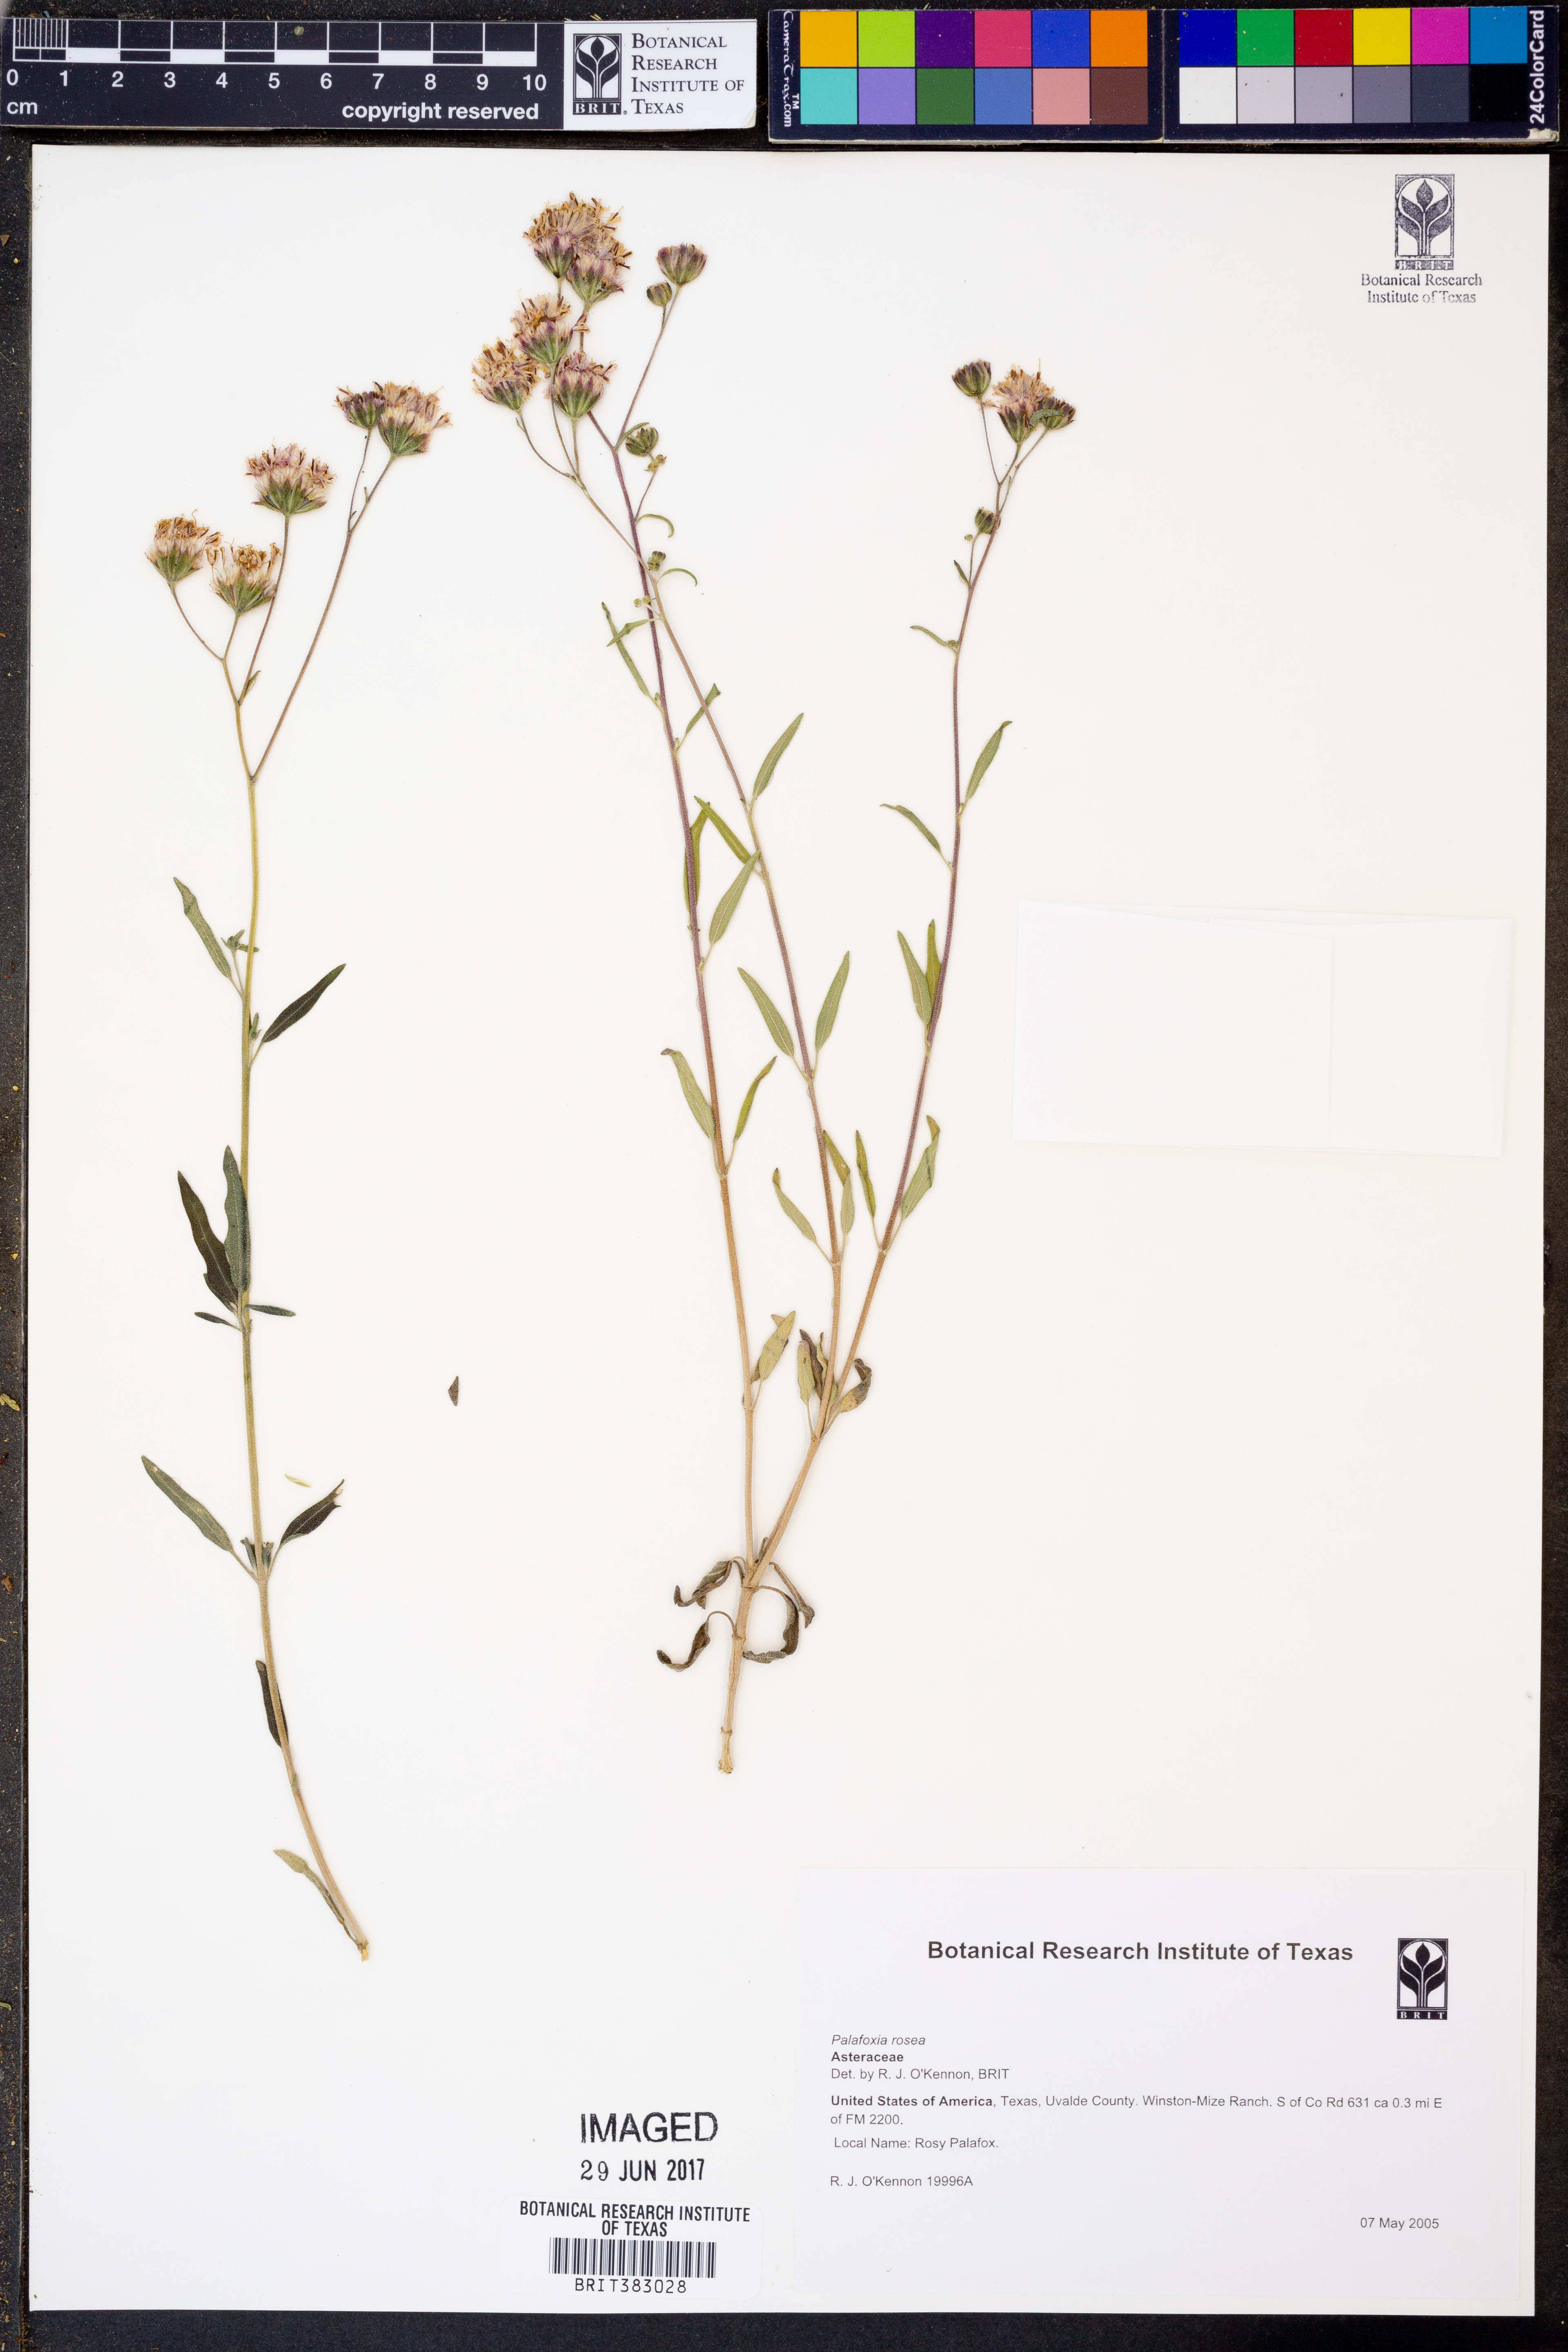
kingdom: Plantae
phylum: Tracheophyta
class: Magnoliopsida
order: Asterales
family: Asteraceae
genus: Palafoxia
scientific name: Palafoxia rosea
